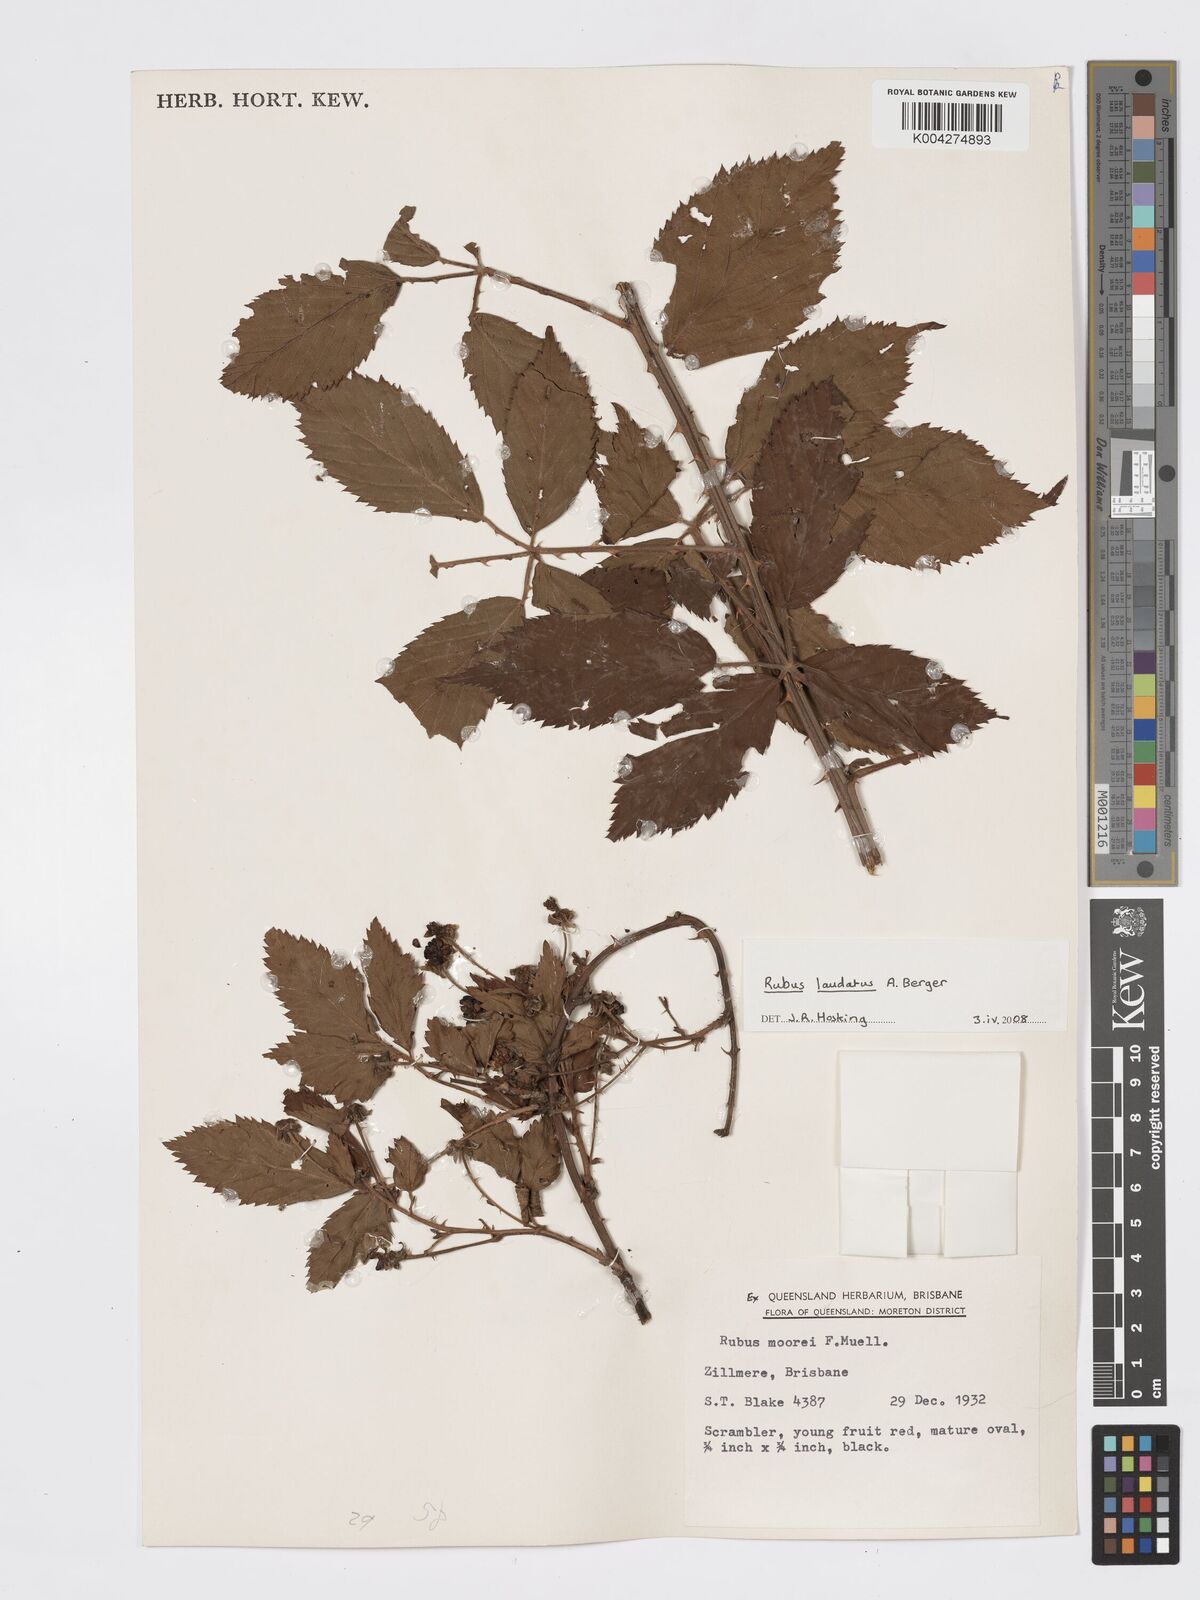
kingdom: Plantae
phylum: Tracheophyta
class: Magnoliopsida
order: Rosales
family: Rosaceae
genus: Rubus
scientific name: Rubus laudatus
